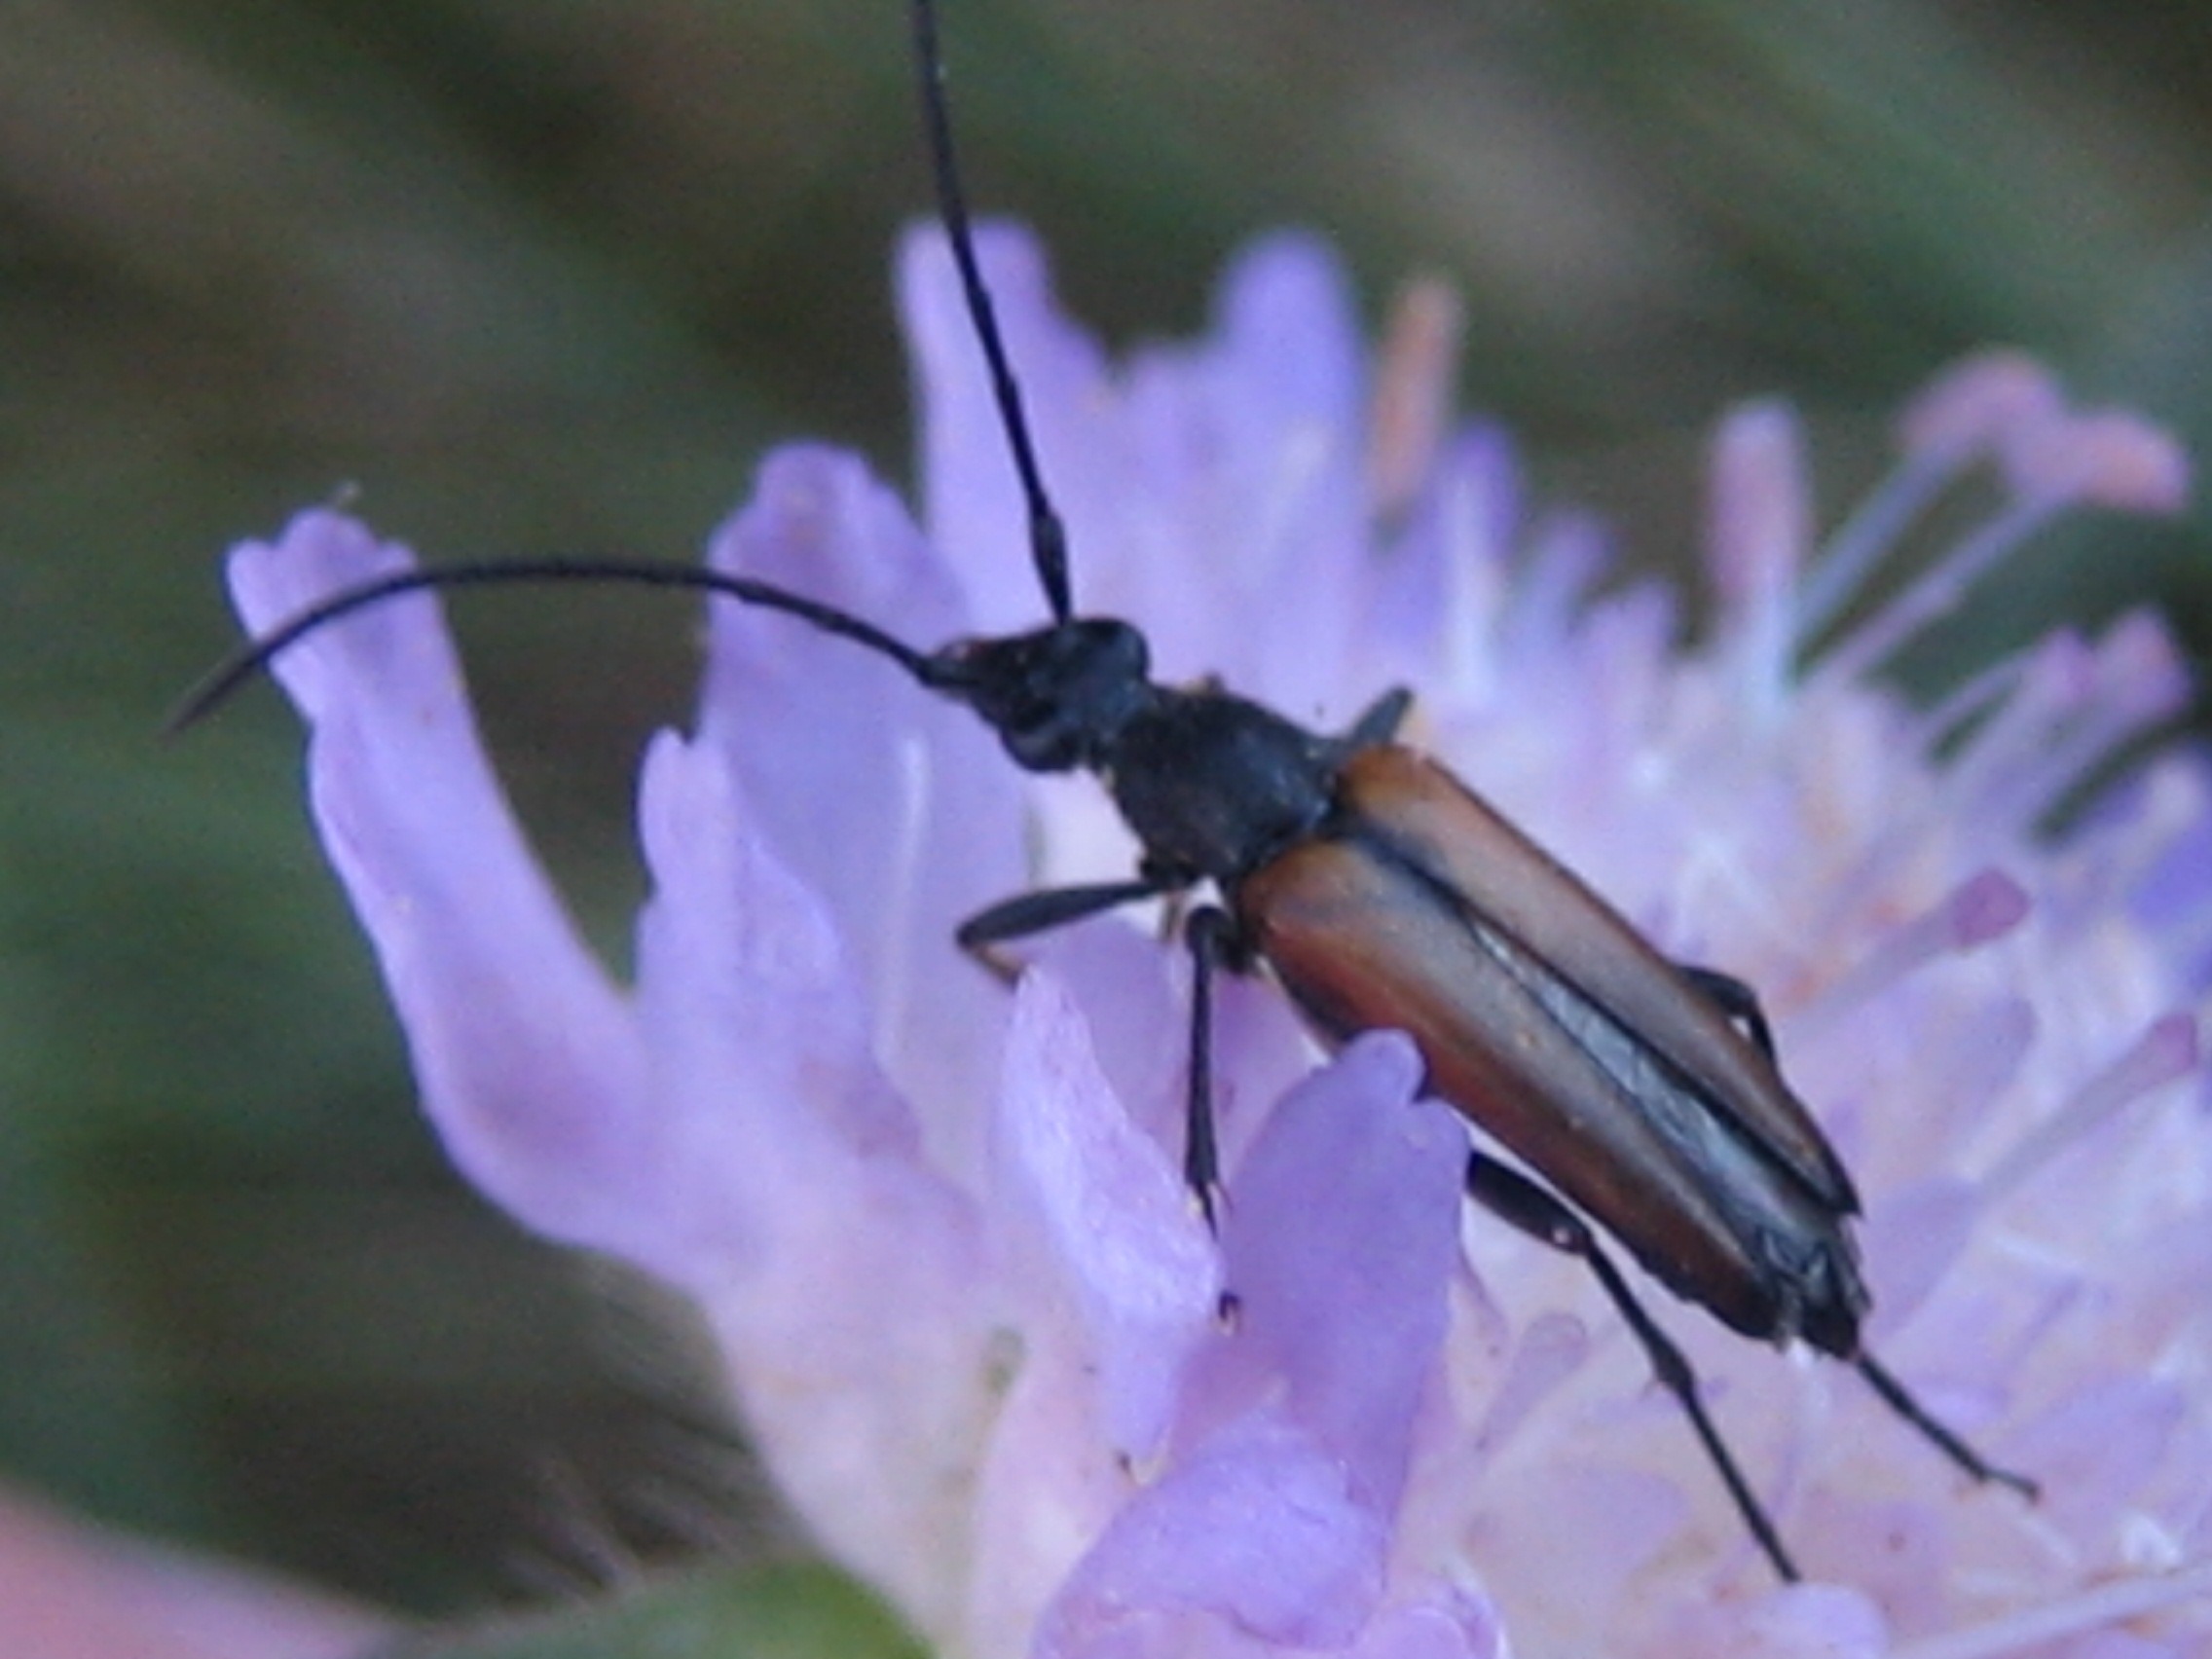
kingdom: Animalia
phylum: Arthropoda
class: Insecta
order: Coleoptera
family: Cerambycidae
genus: Stenurella
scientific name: Stenurella melanura
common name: Sortsømmet blomsterbuk
